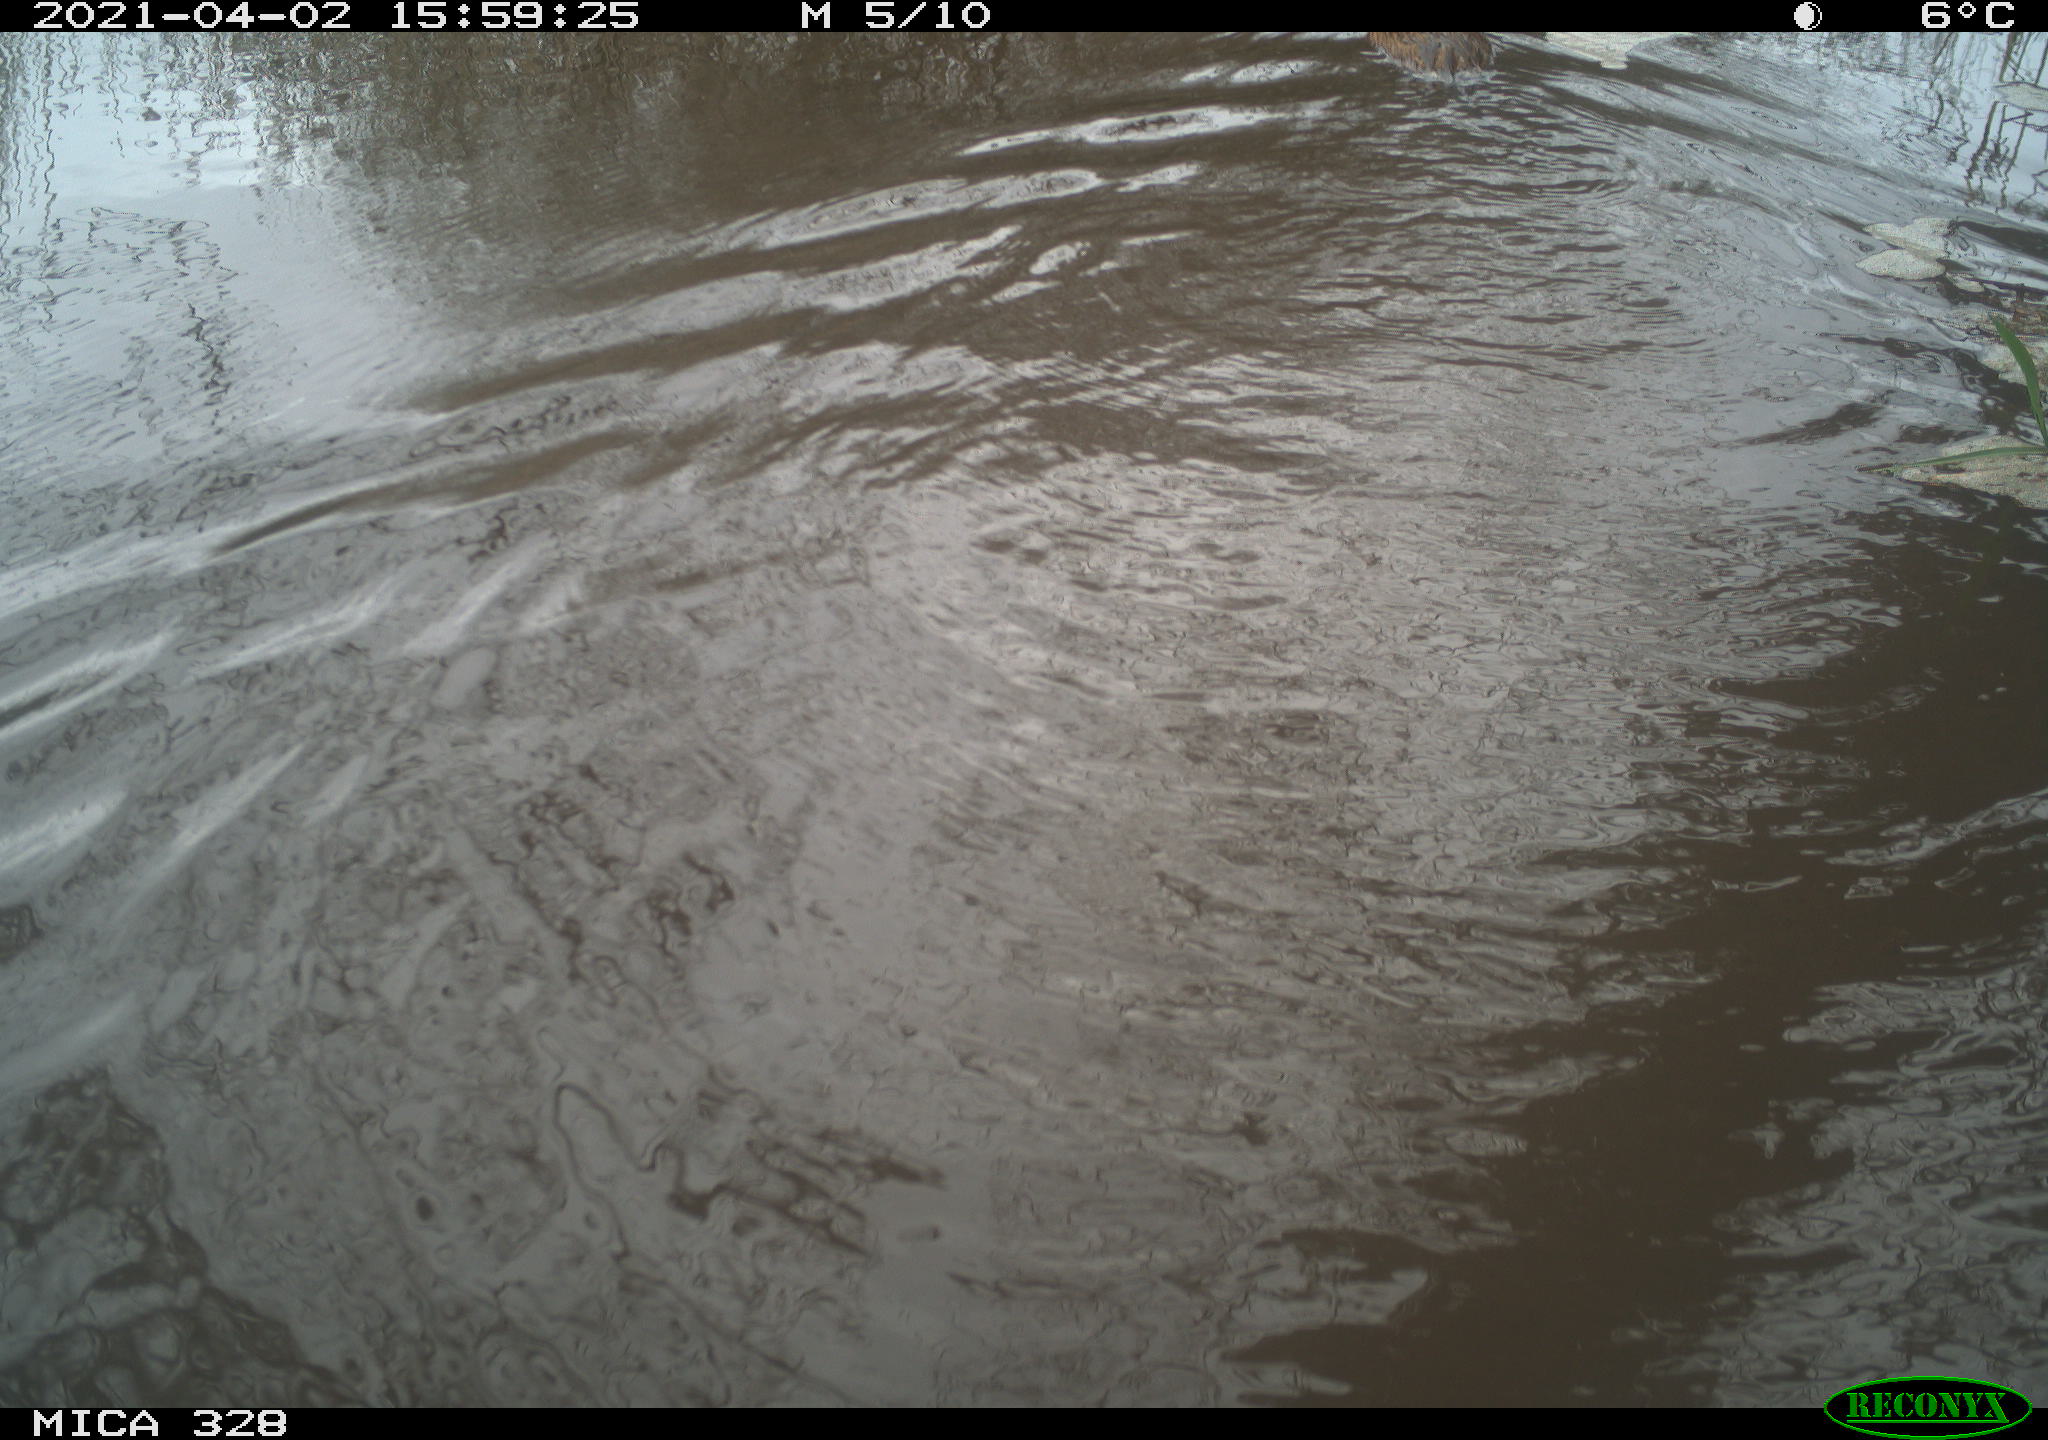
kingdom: Animalia
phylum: Chordata
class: Mammalia
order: Rodentia
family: Cricetidae
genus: Ondatra
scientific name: Ondatra zibethicus
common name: Muskrat
